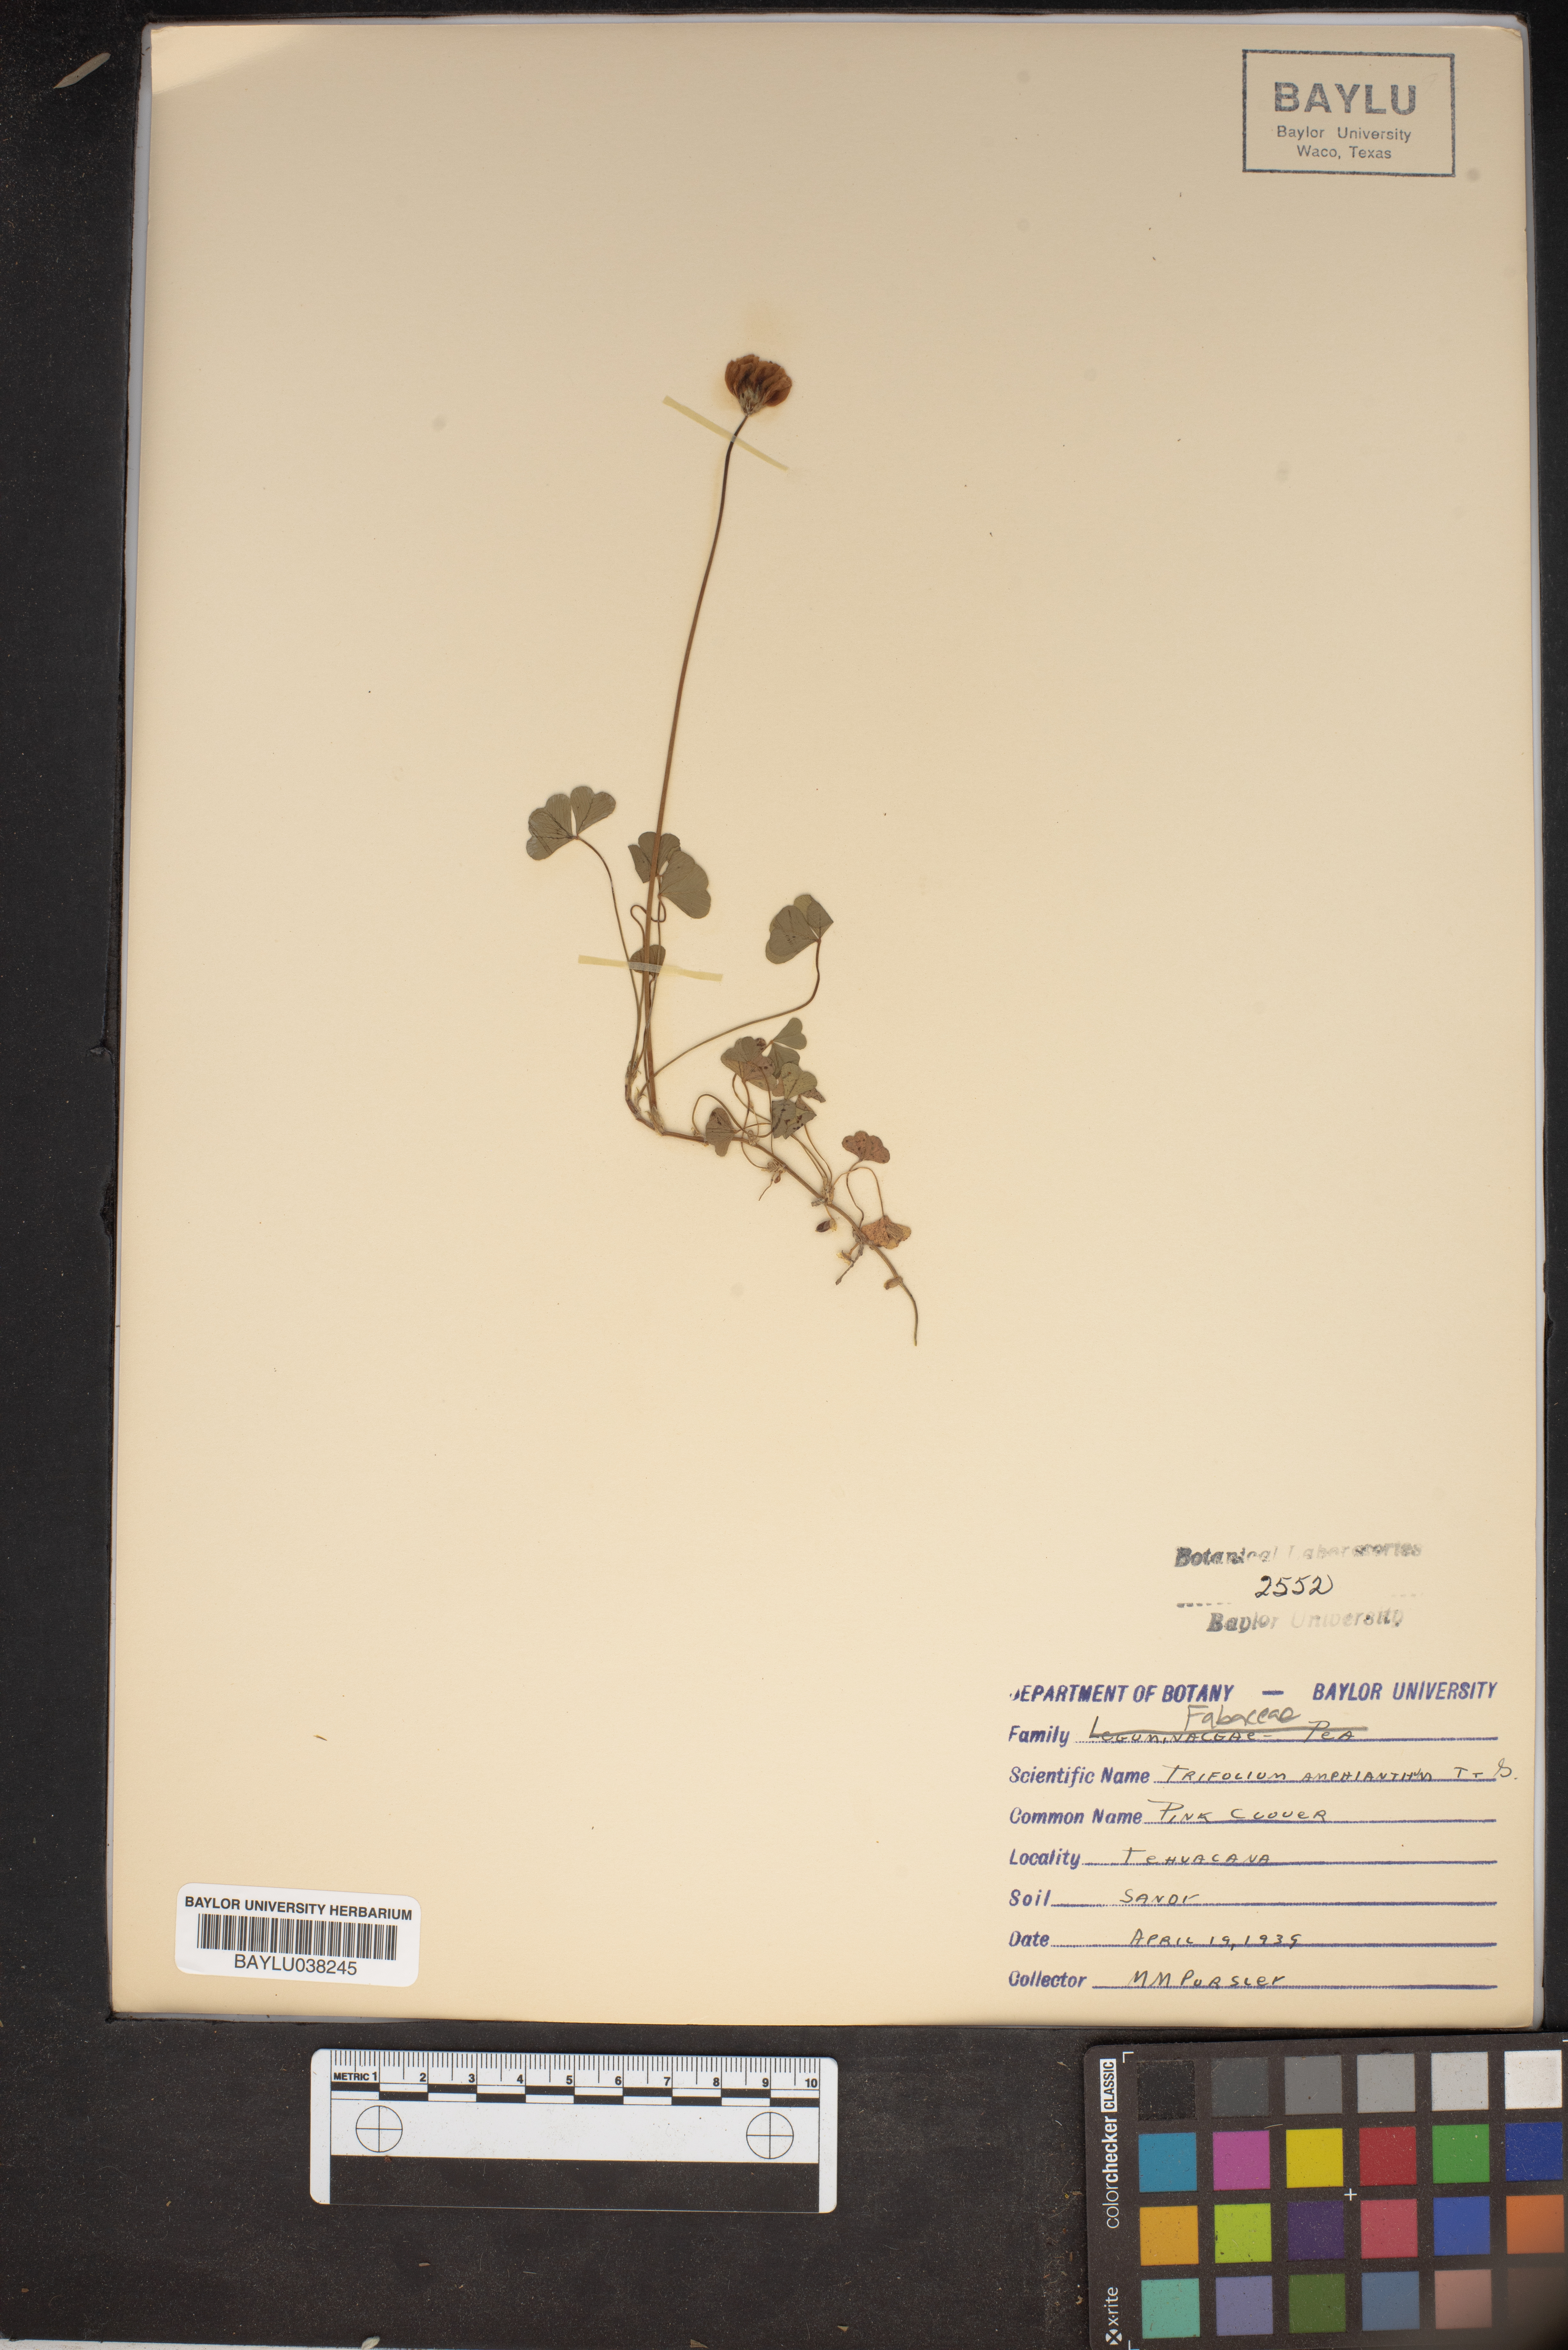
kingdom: Plantae
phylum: Tracheophyta
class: Magnoliopsida
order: Fabales
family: Fabaceae
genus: Trifolium
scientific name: Trifolium amphianthum
